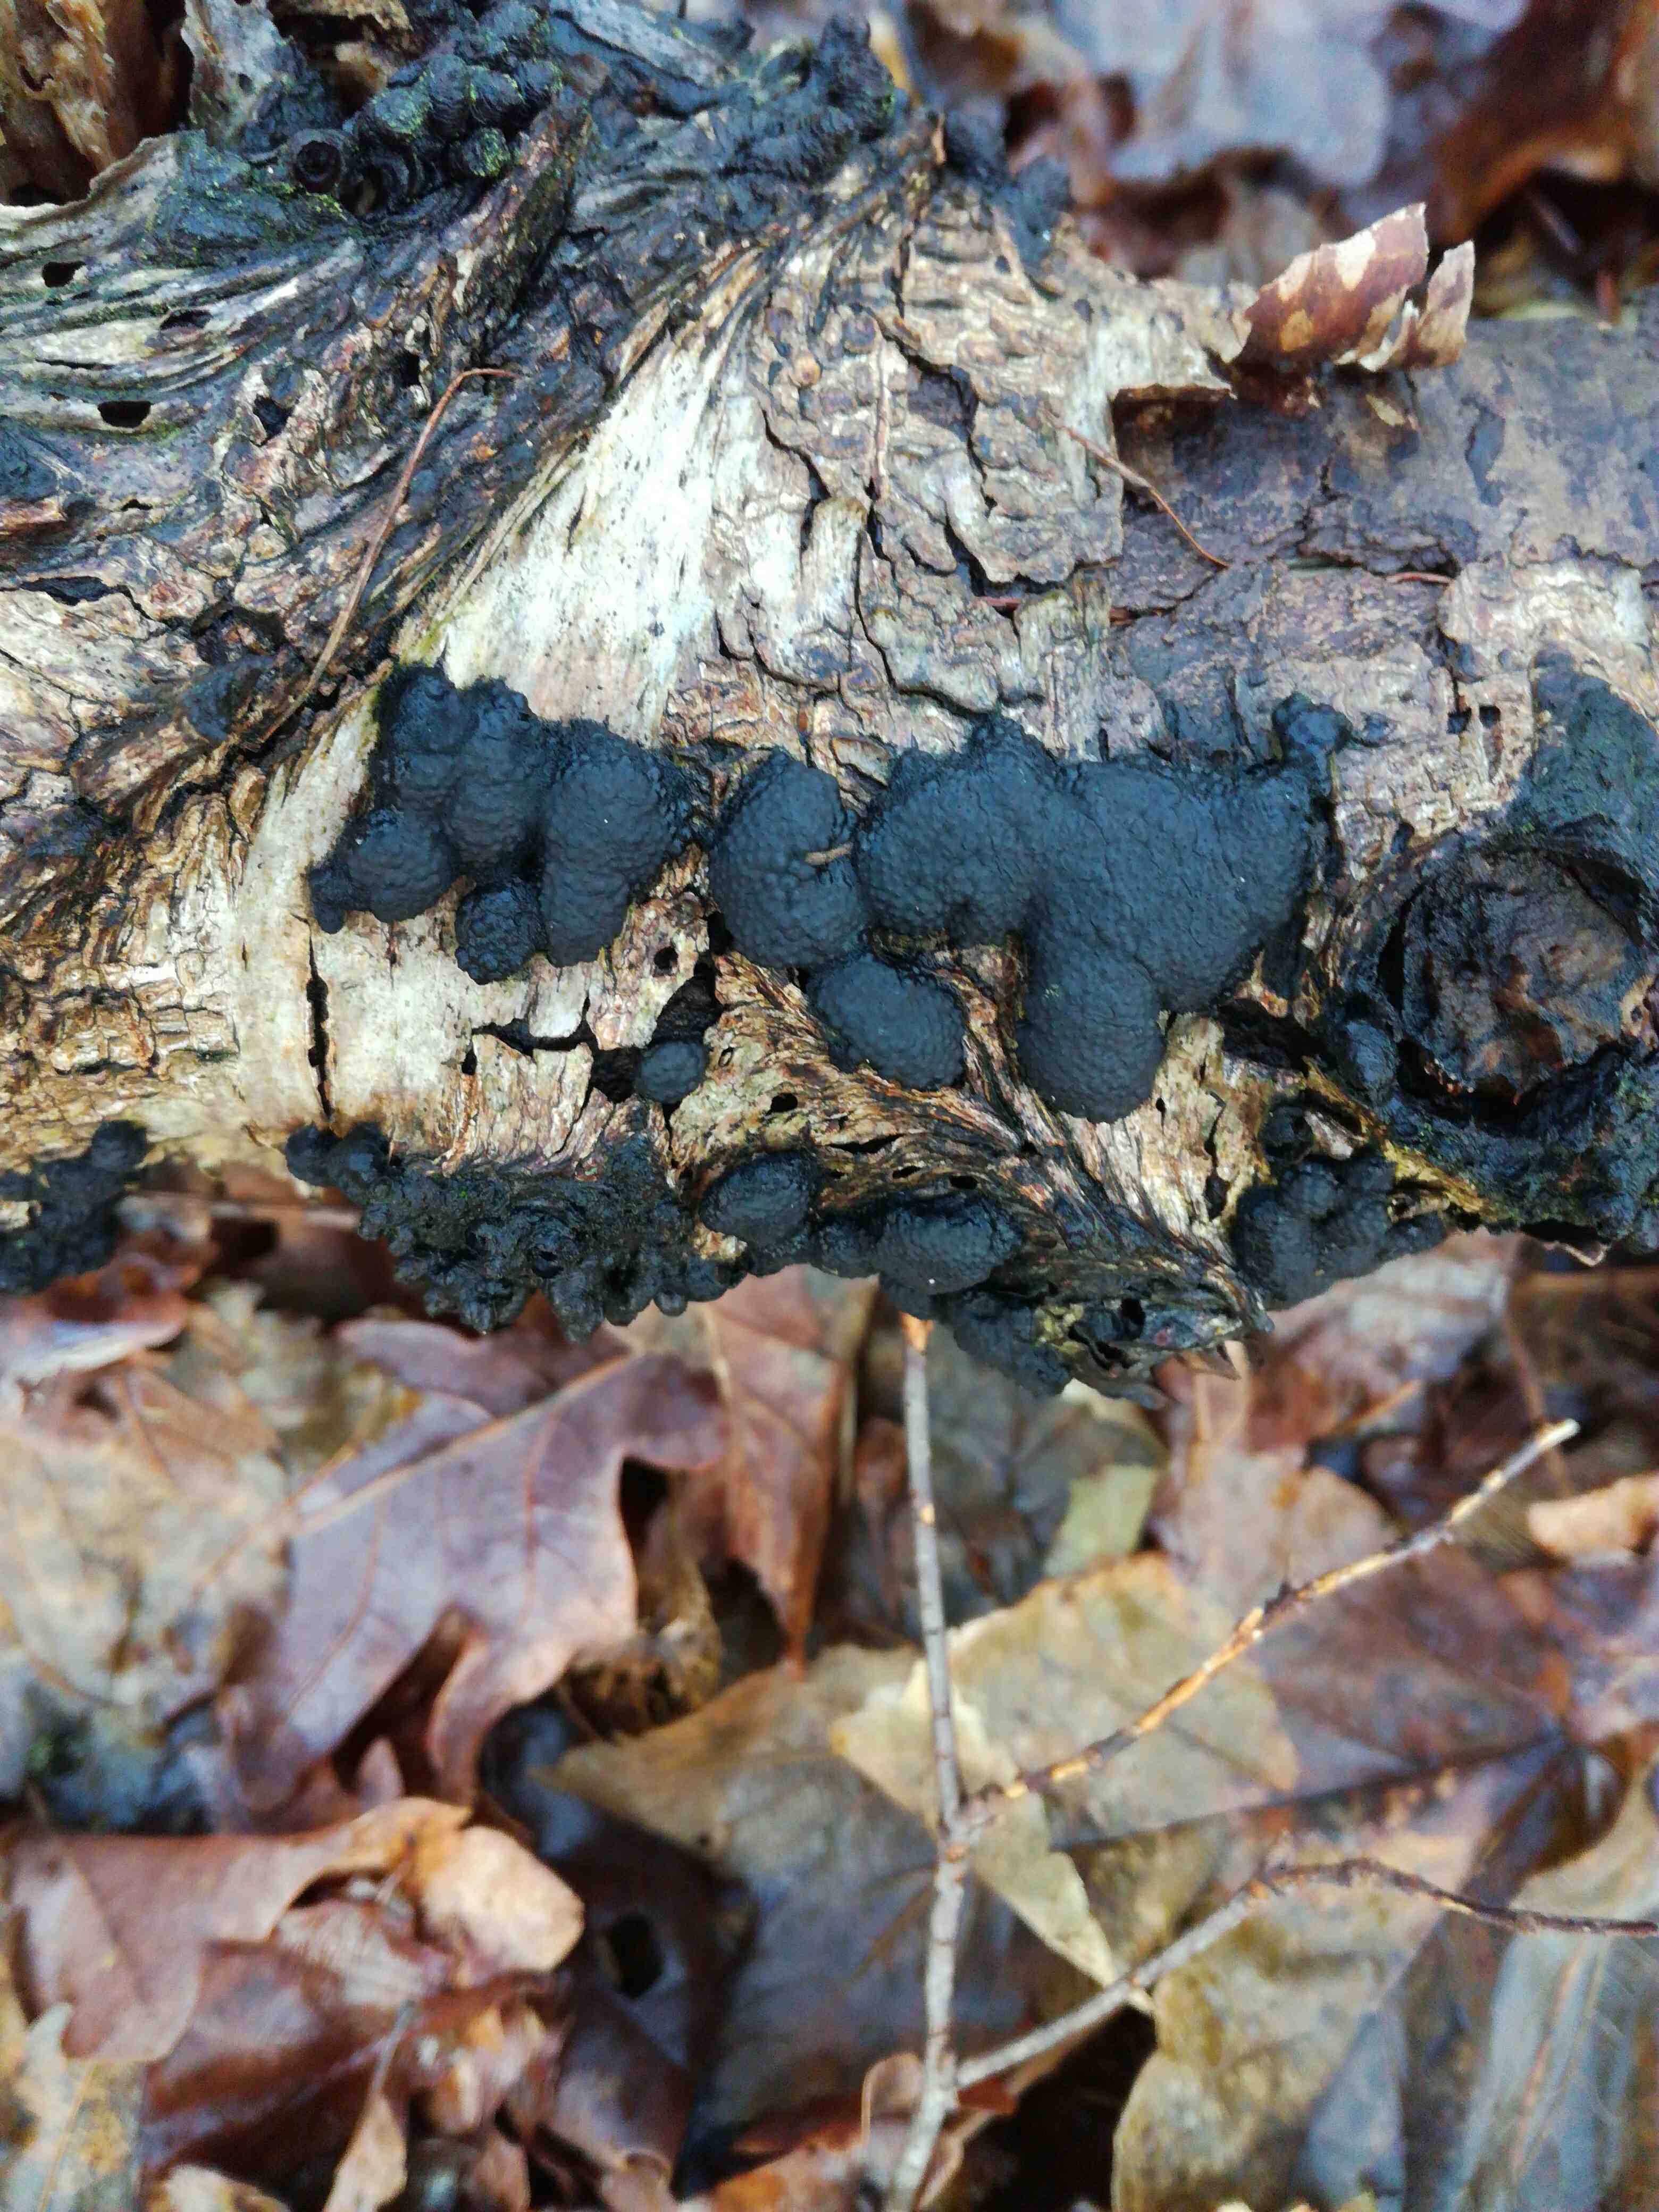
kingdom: Fungi
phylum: Ascomycota
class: Sordariomycetes
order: Xylariales
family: Hypoxylaceae
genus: Jackrogersella
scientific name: Jackrogersella
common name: kulbær
